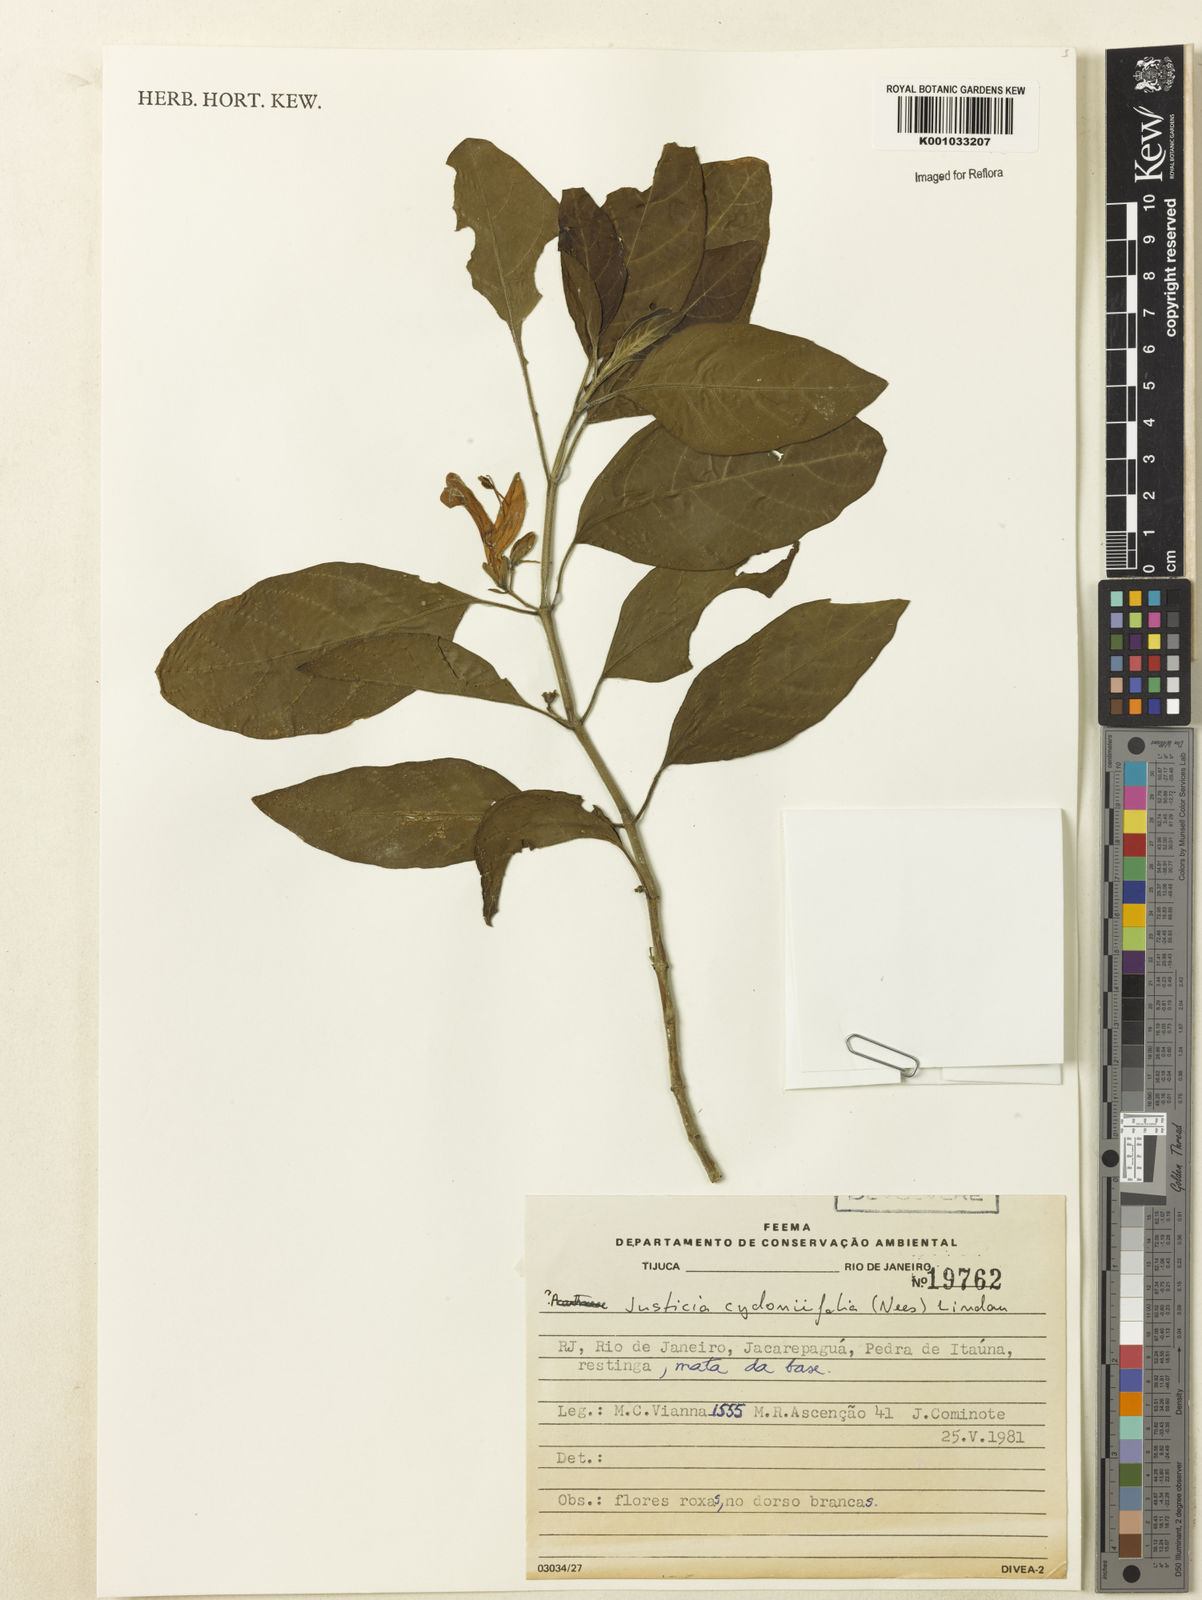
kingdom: Plantae
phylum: Tracheophyta
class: Magnoliopsida
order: Lamiales
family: Acanthaceae
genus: Justicia
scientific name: Justicia
